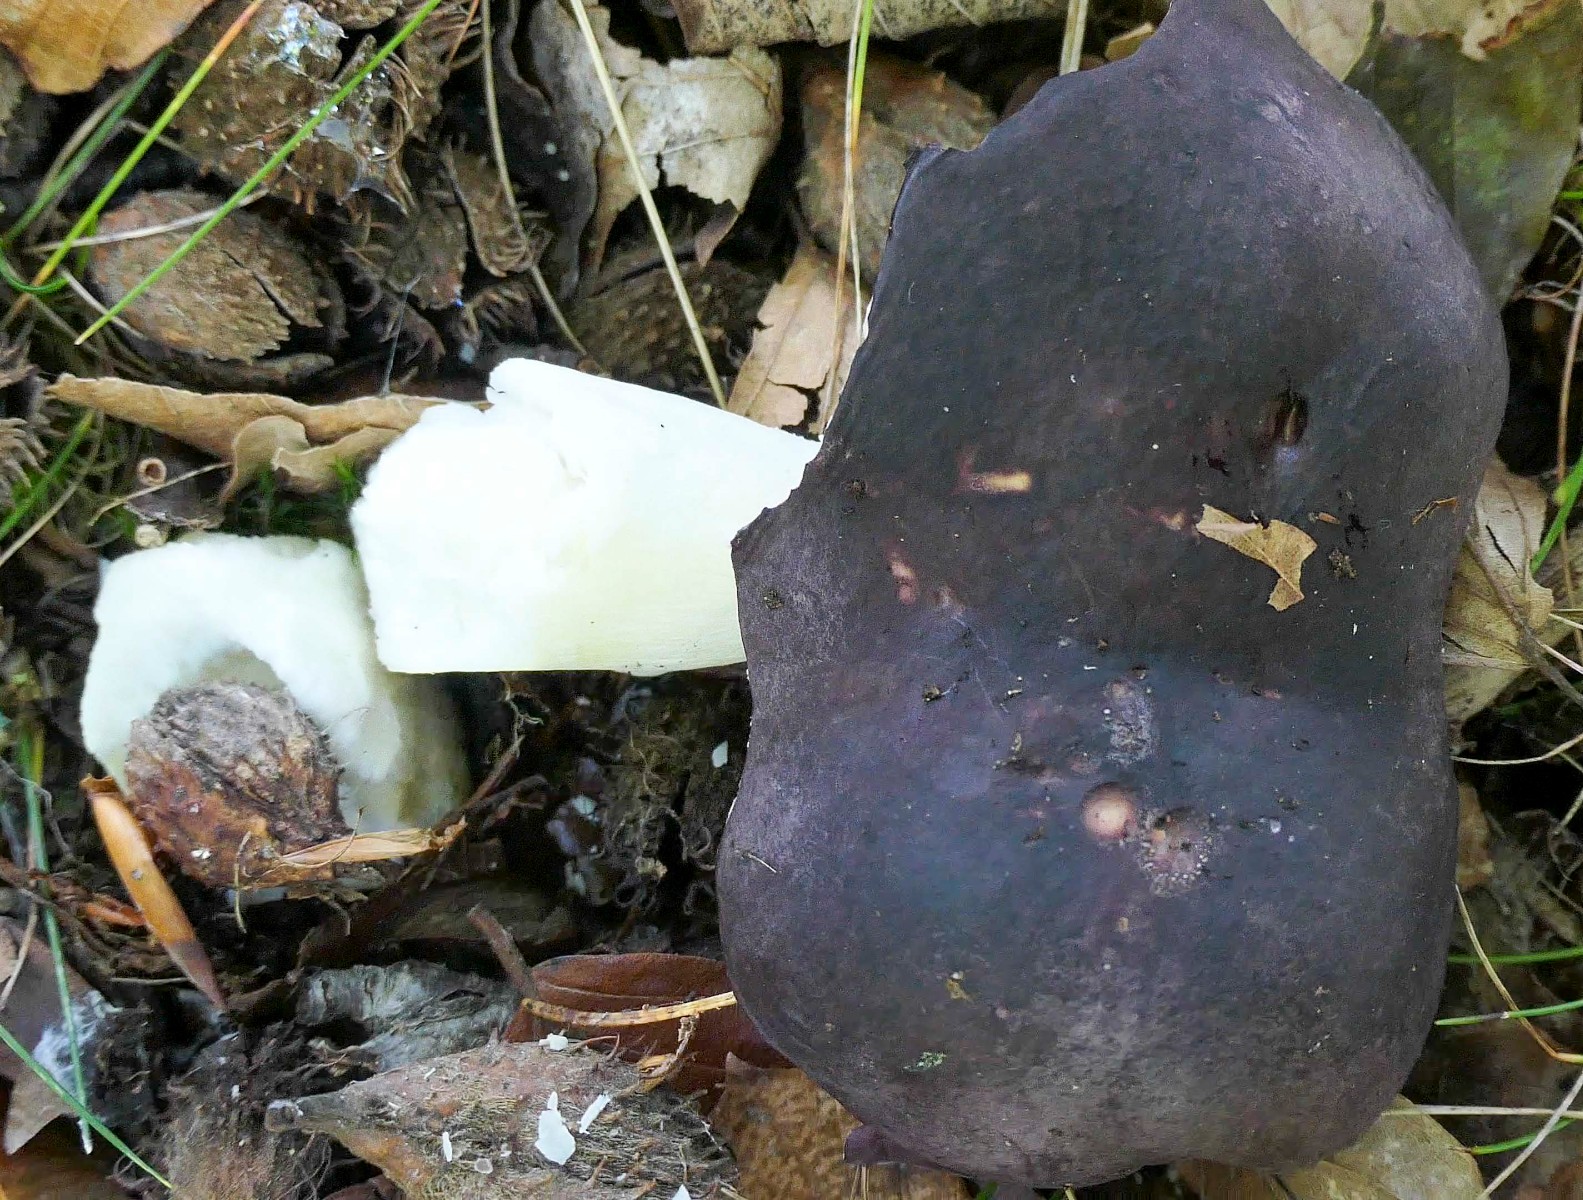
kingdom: Fungi
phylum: Basidiomycota
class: Agaricomycetes
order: Russulales
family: Russulaceae
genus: Russula
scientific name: Russula brunneoviolacea
